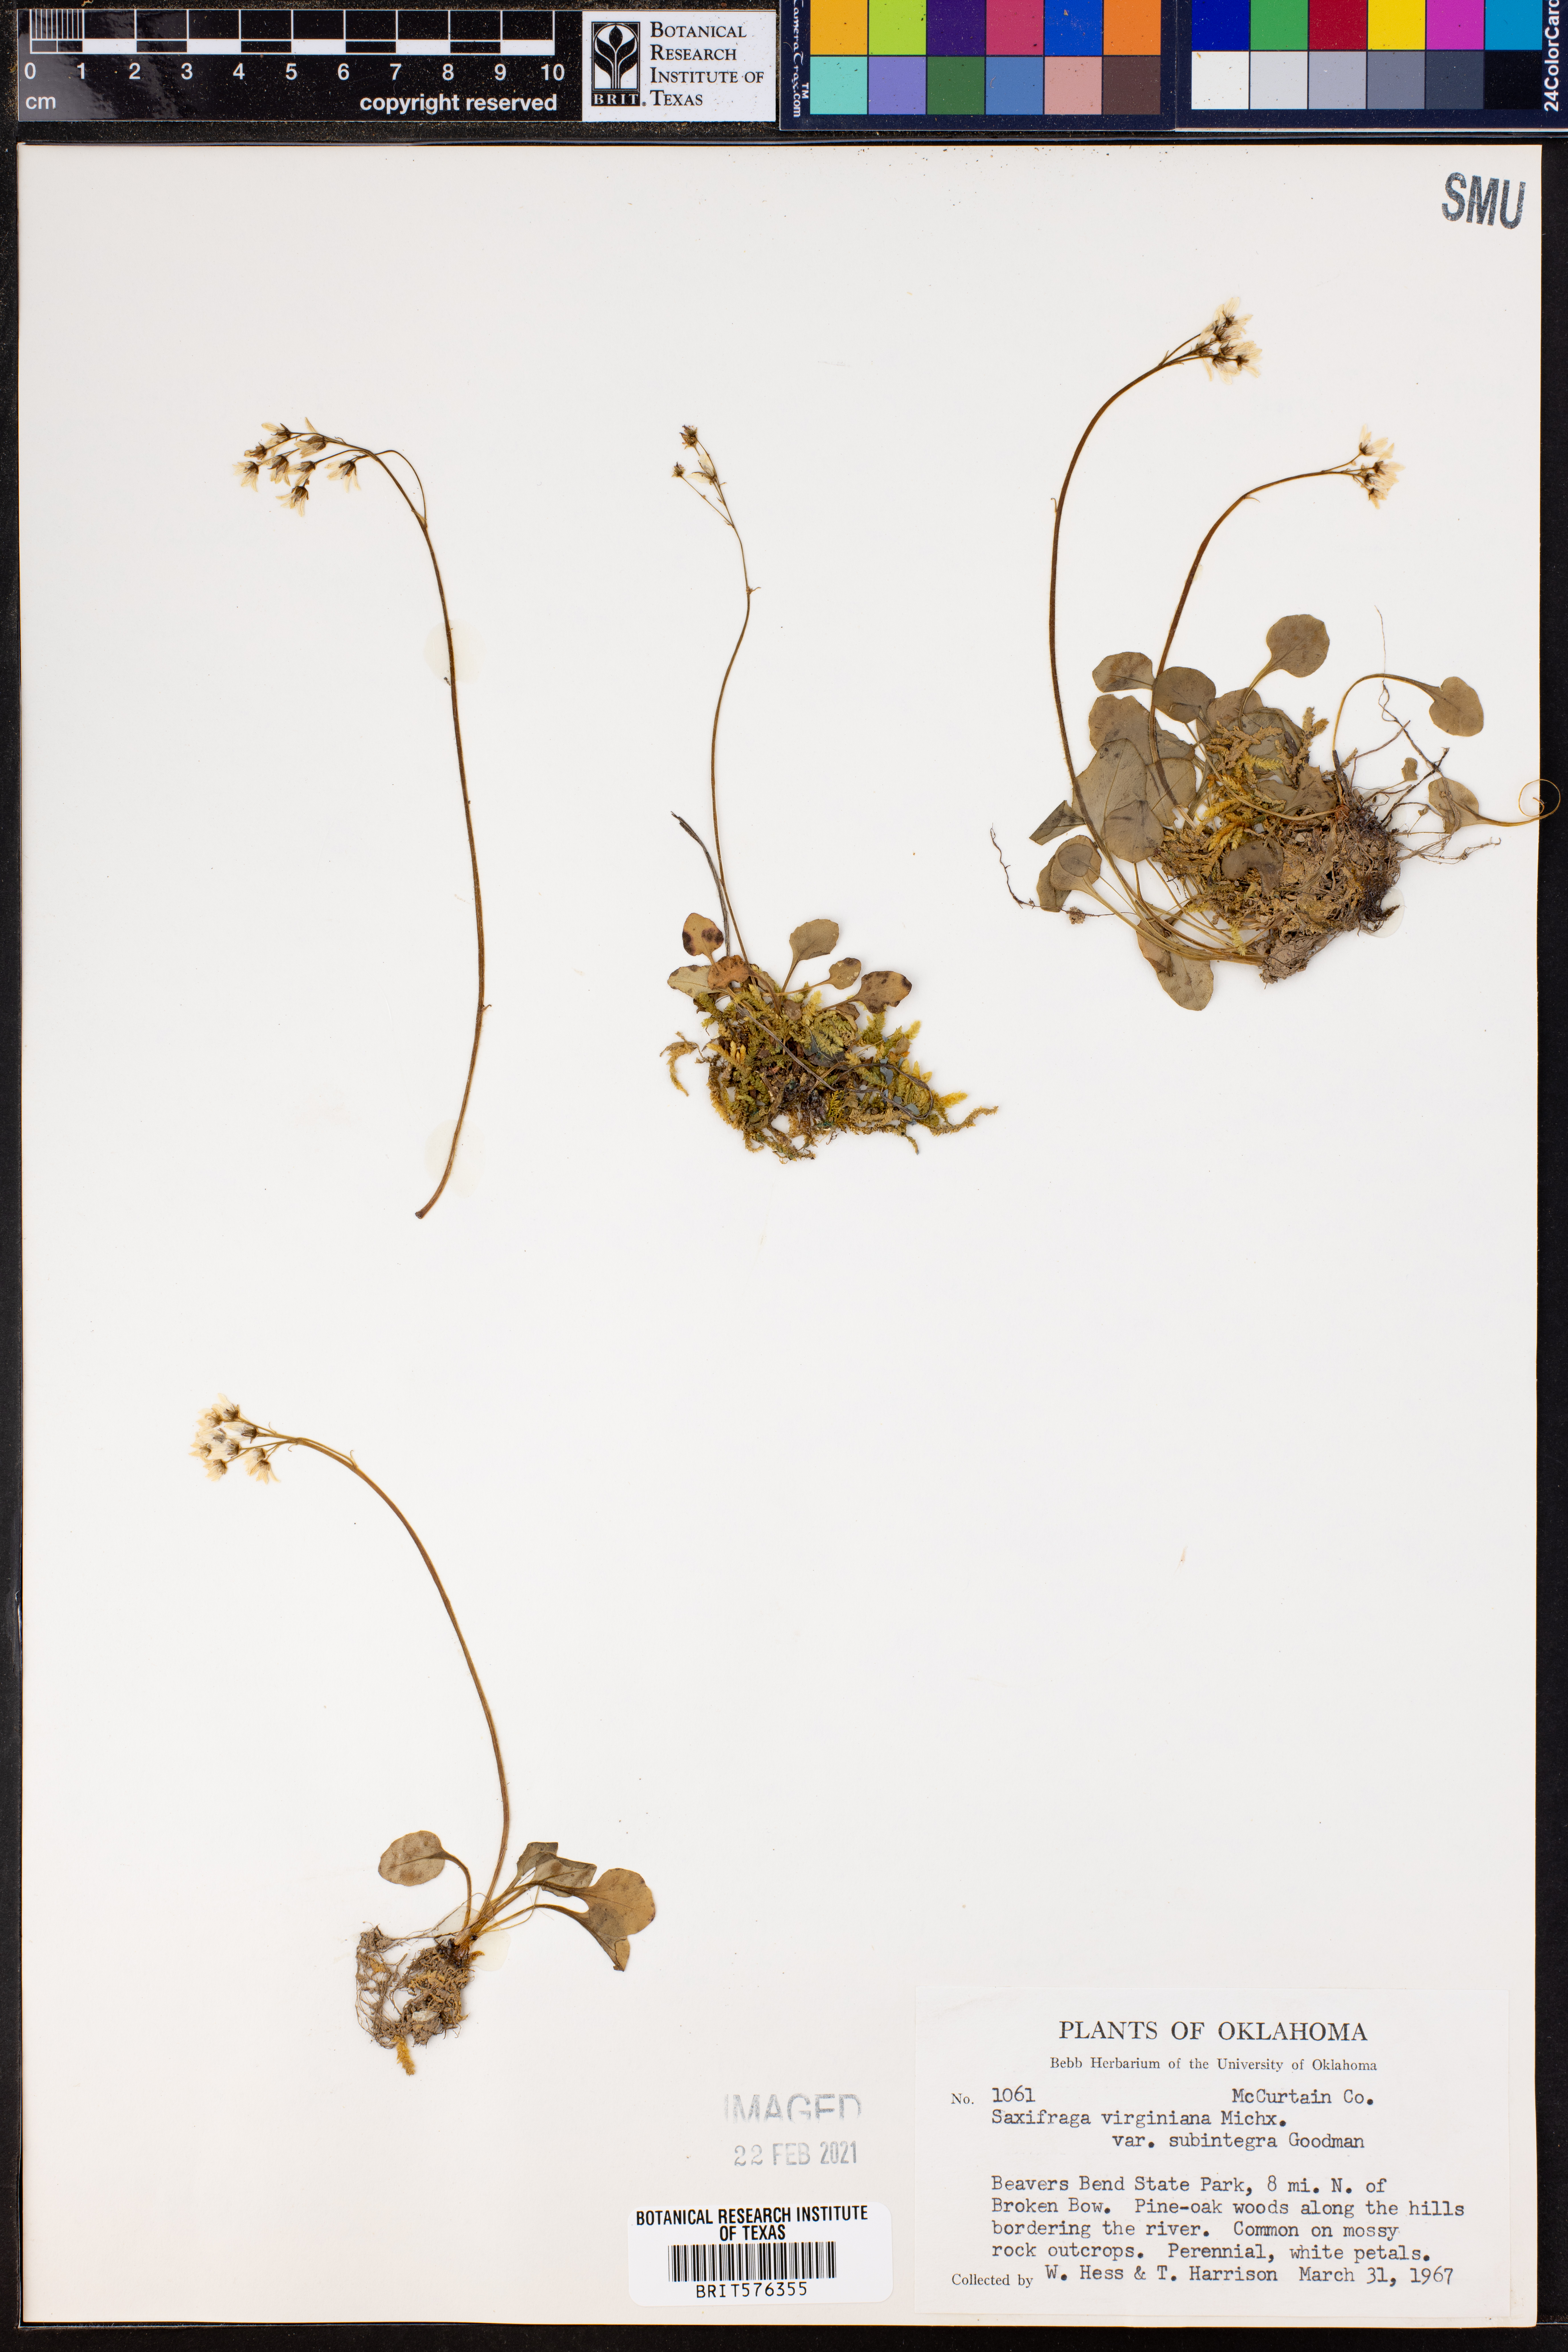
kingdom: Plantae
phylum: Tracheophyta
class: Magnoliopsida
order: Saxifragales
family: Saxifragaceae
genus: Micranthes
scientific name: Micranthes palmeri
